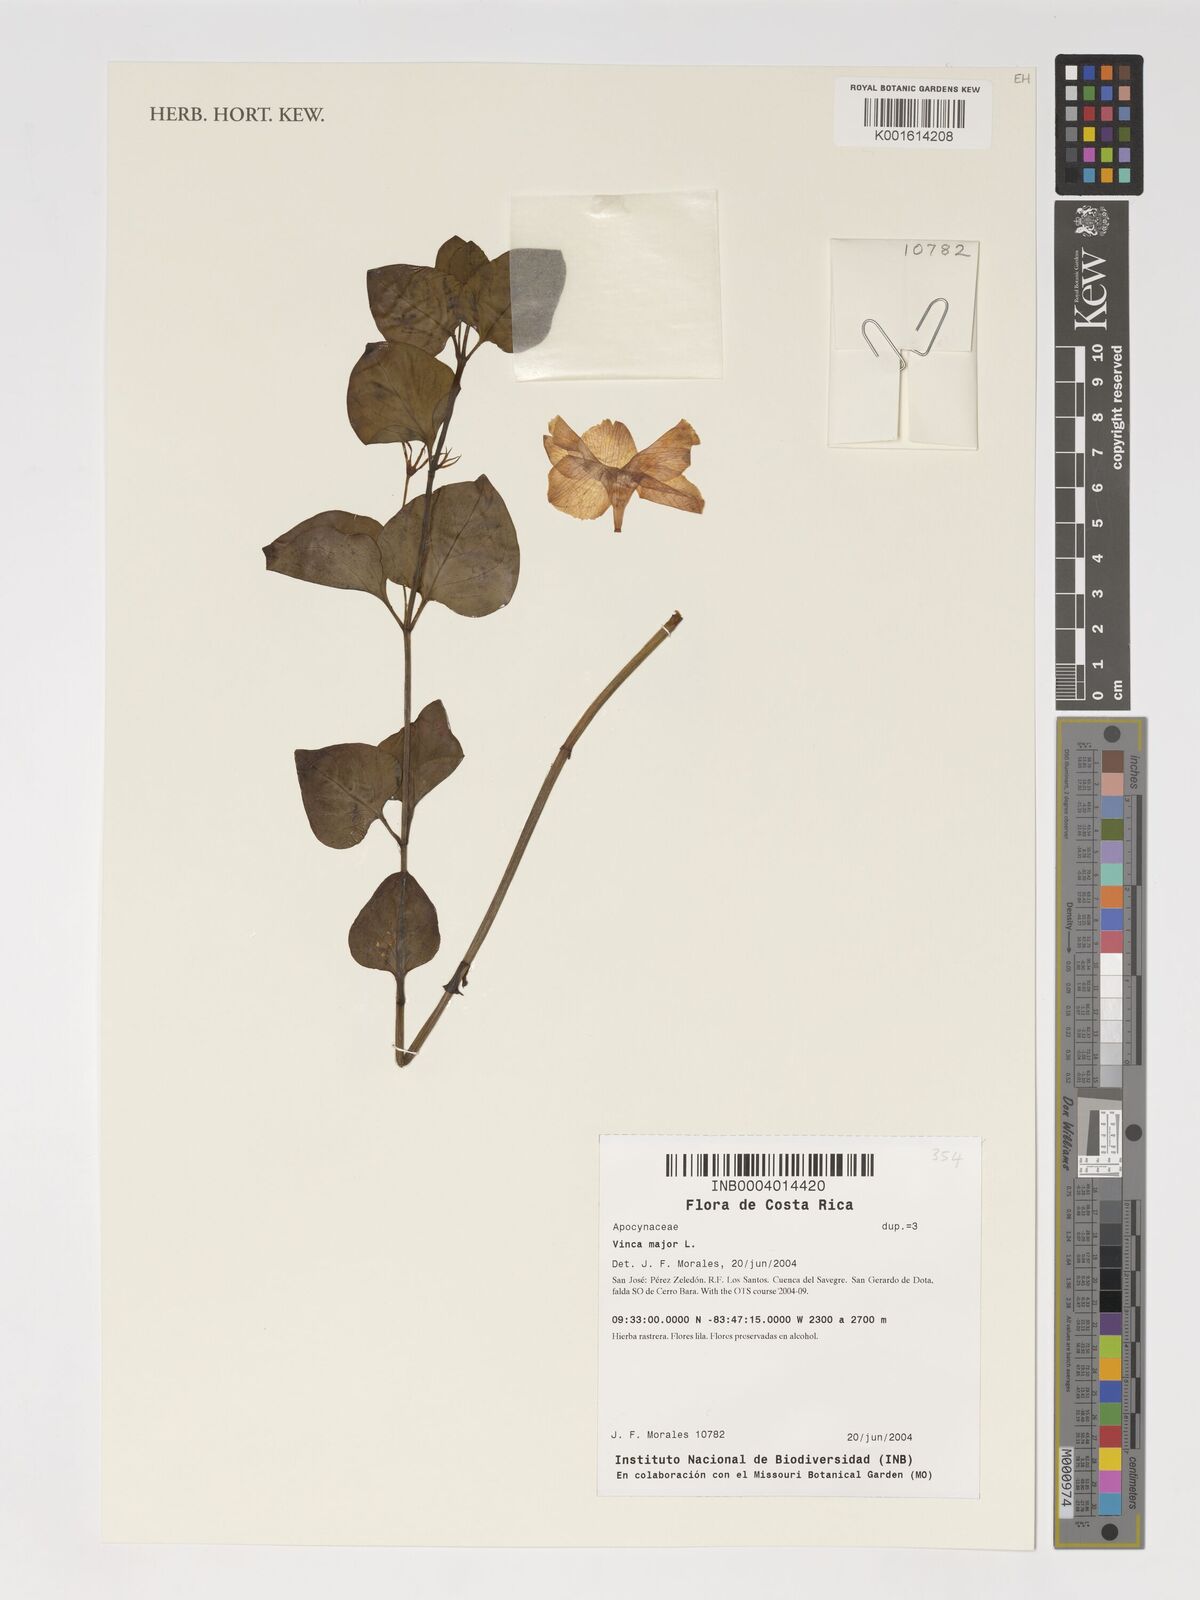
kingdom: Plantae
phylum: Tracheophyta
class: Magnoliopsida
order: Gentianales
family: Apocynaceae
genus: Vinca
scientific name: Vinca major
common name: Greater periwinkle
